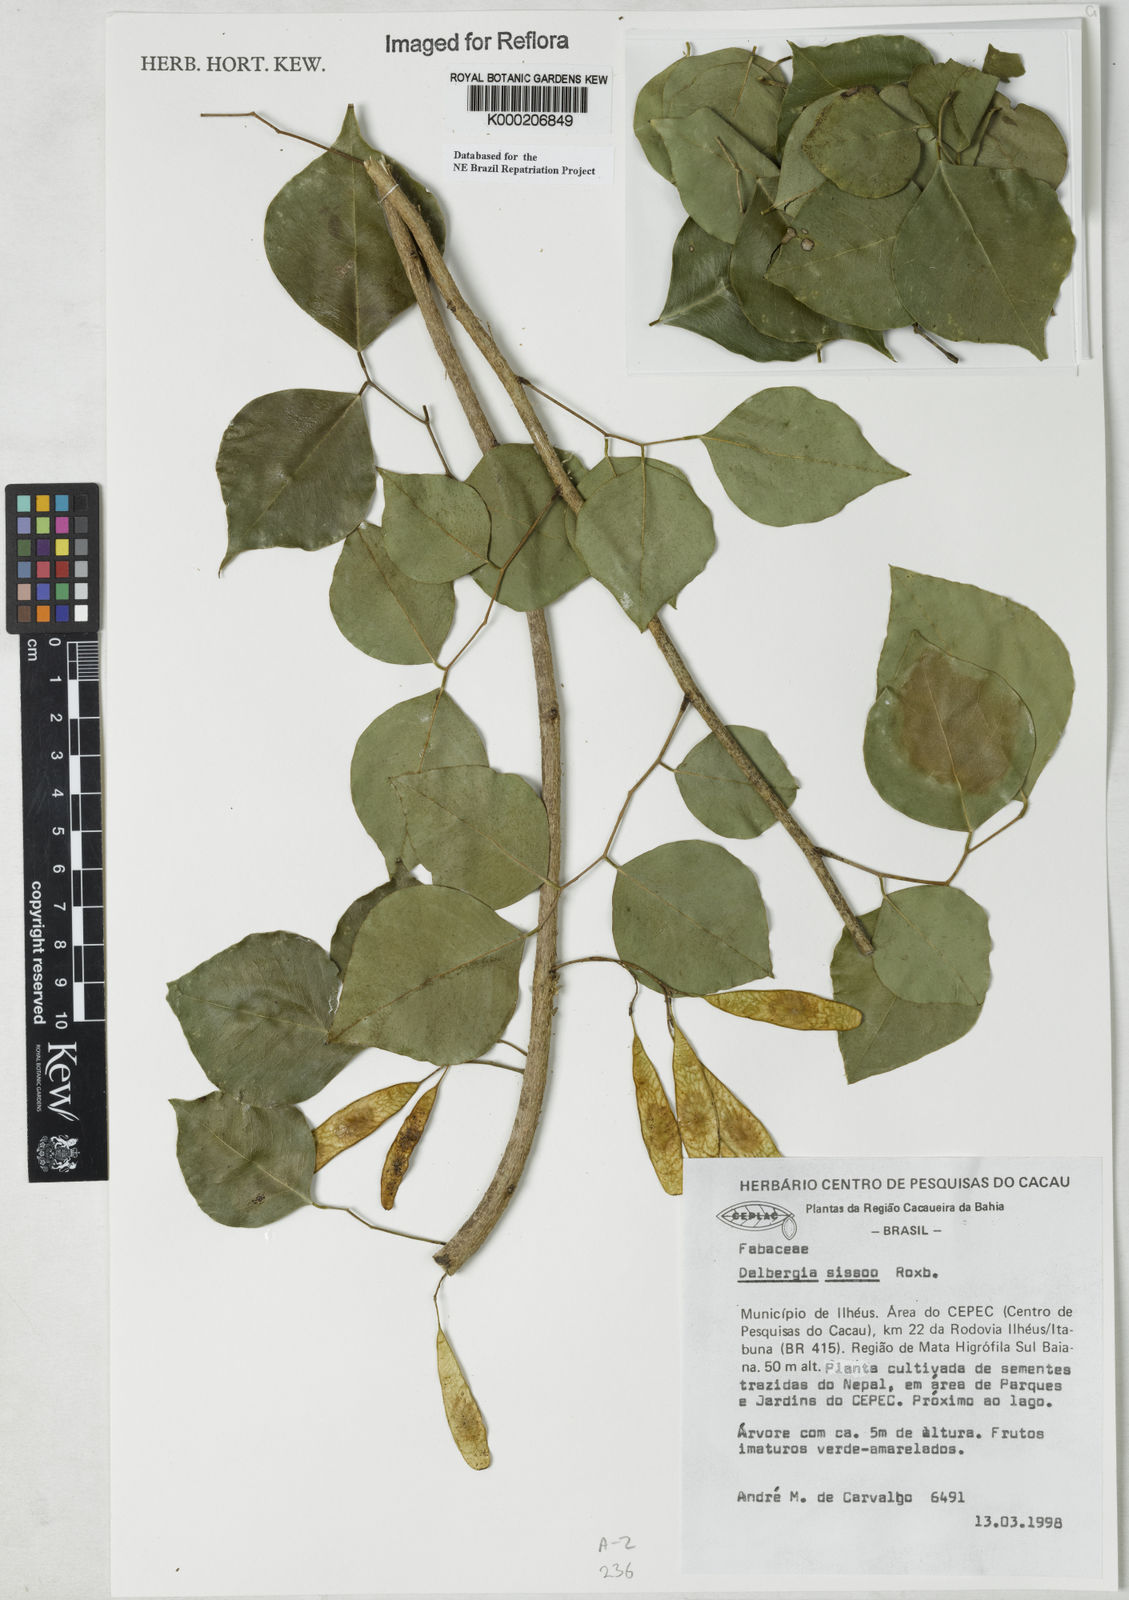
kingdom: Plantae
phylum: Tracheophyta
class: Magnoliopsida
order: Fabales
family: Fabaceae
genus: Dalbergia
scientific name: Dalbergia
